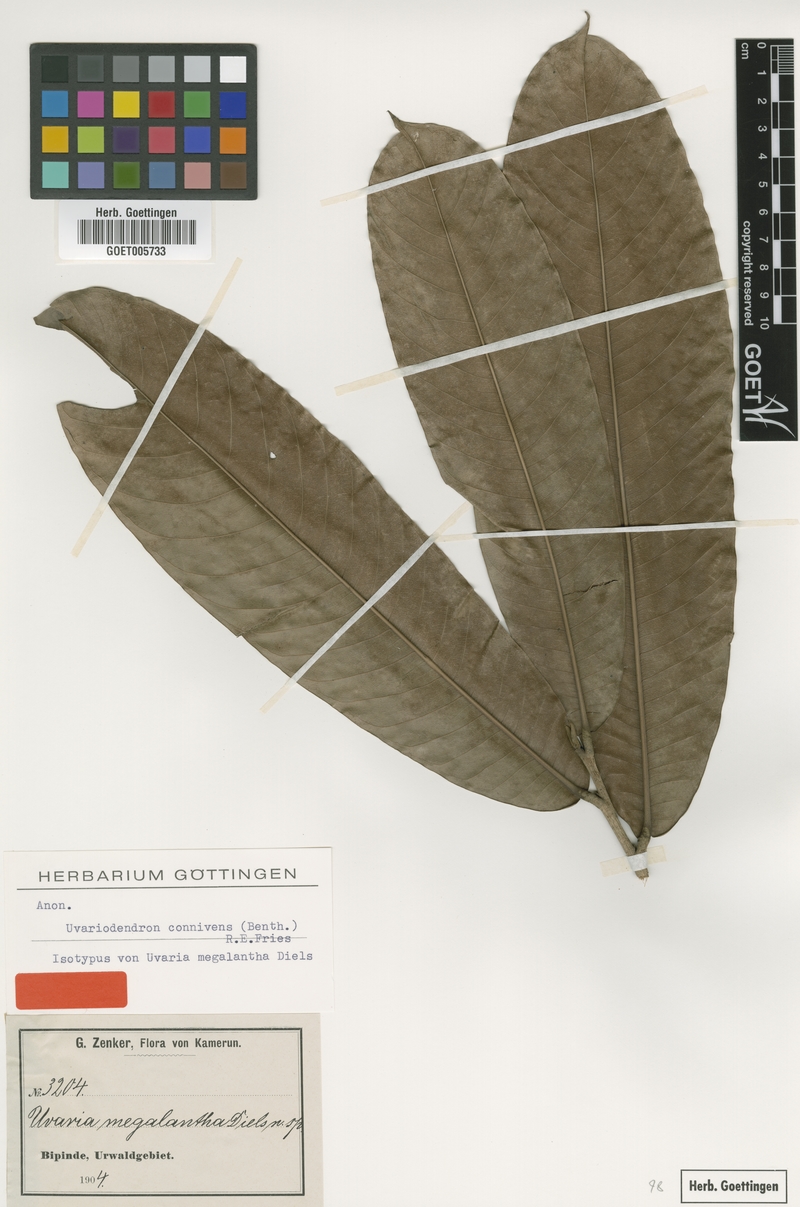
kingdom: Plantae
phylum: Tracheophyta
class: Magnoliopsida
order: Magnoliales
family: Annonaceae
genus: Uvariodendron
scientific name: Uvariodendron connivens
